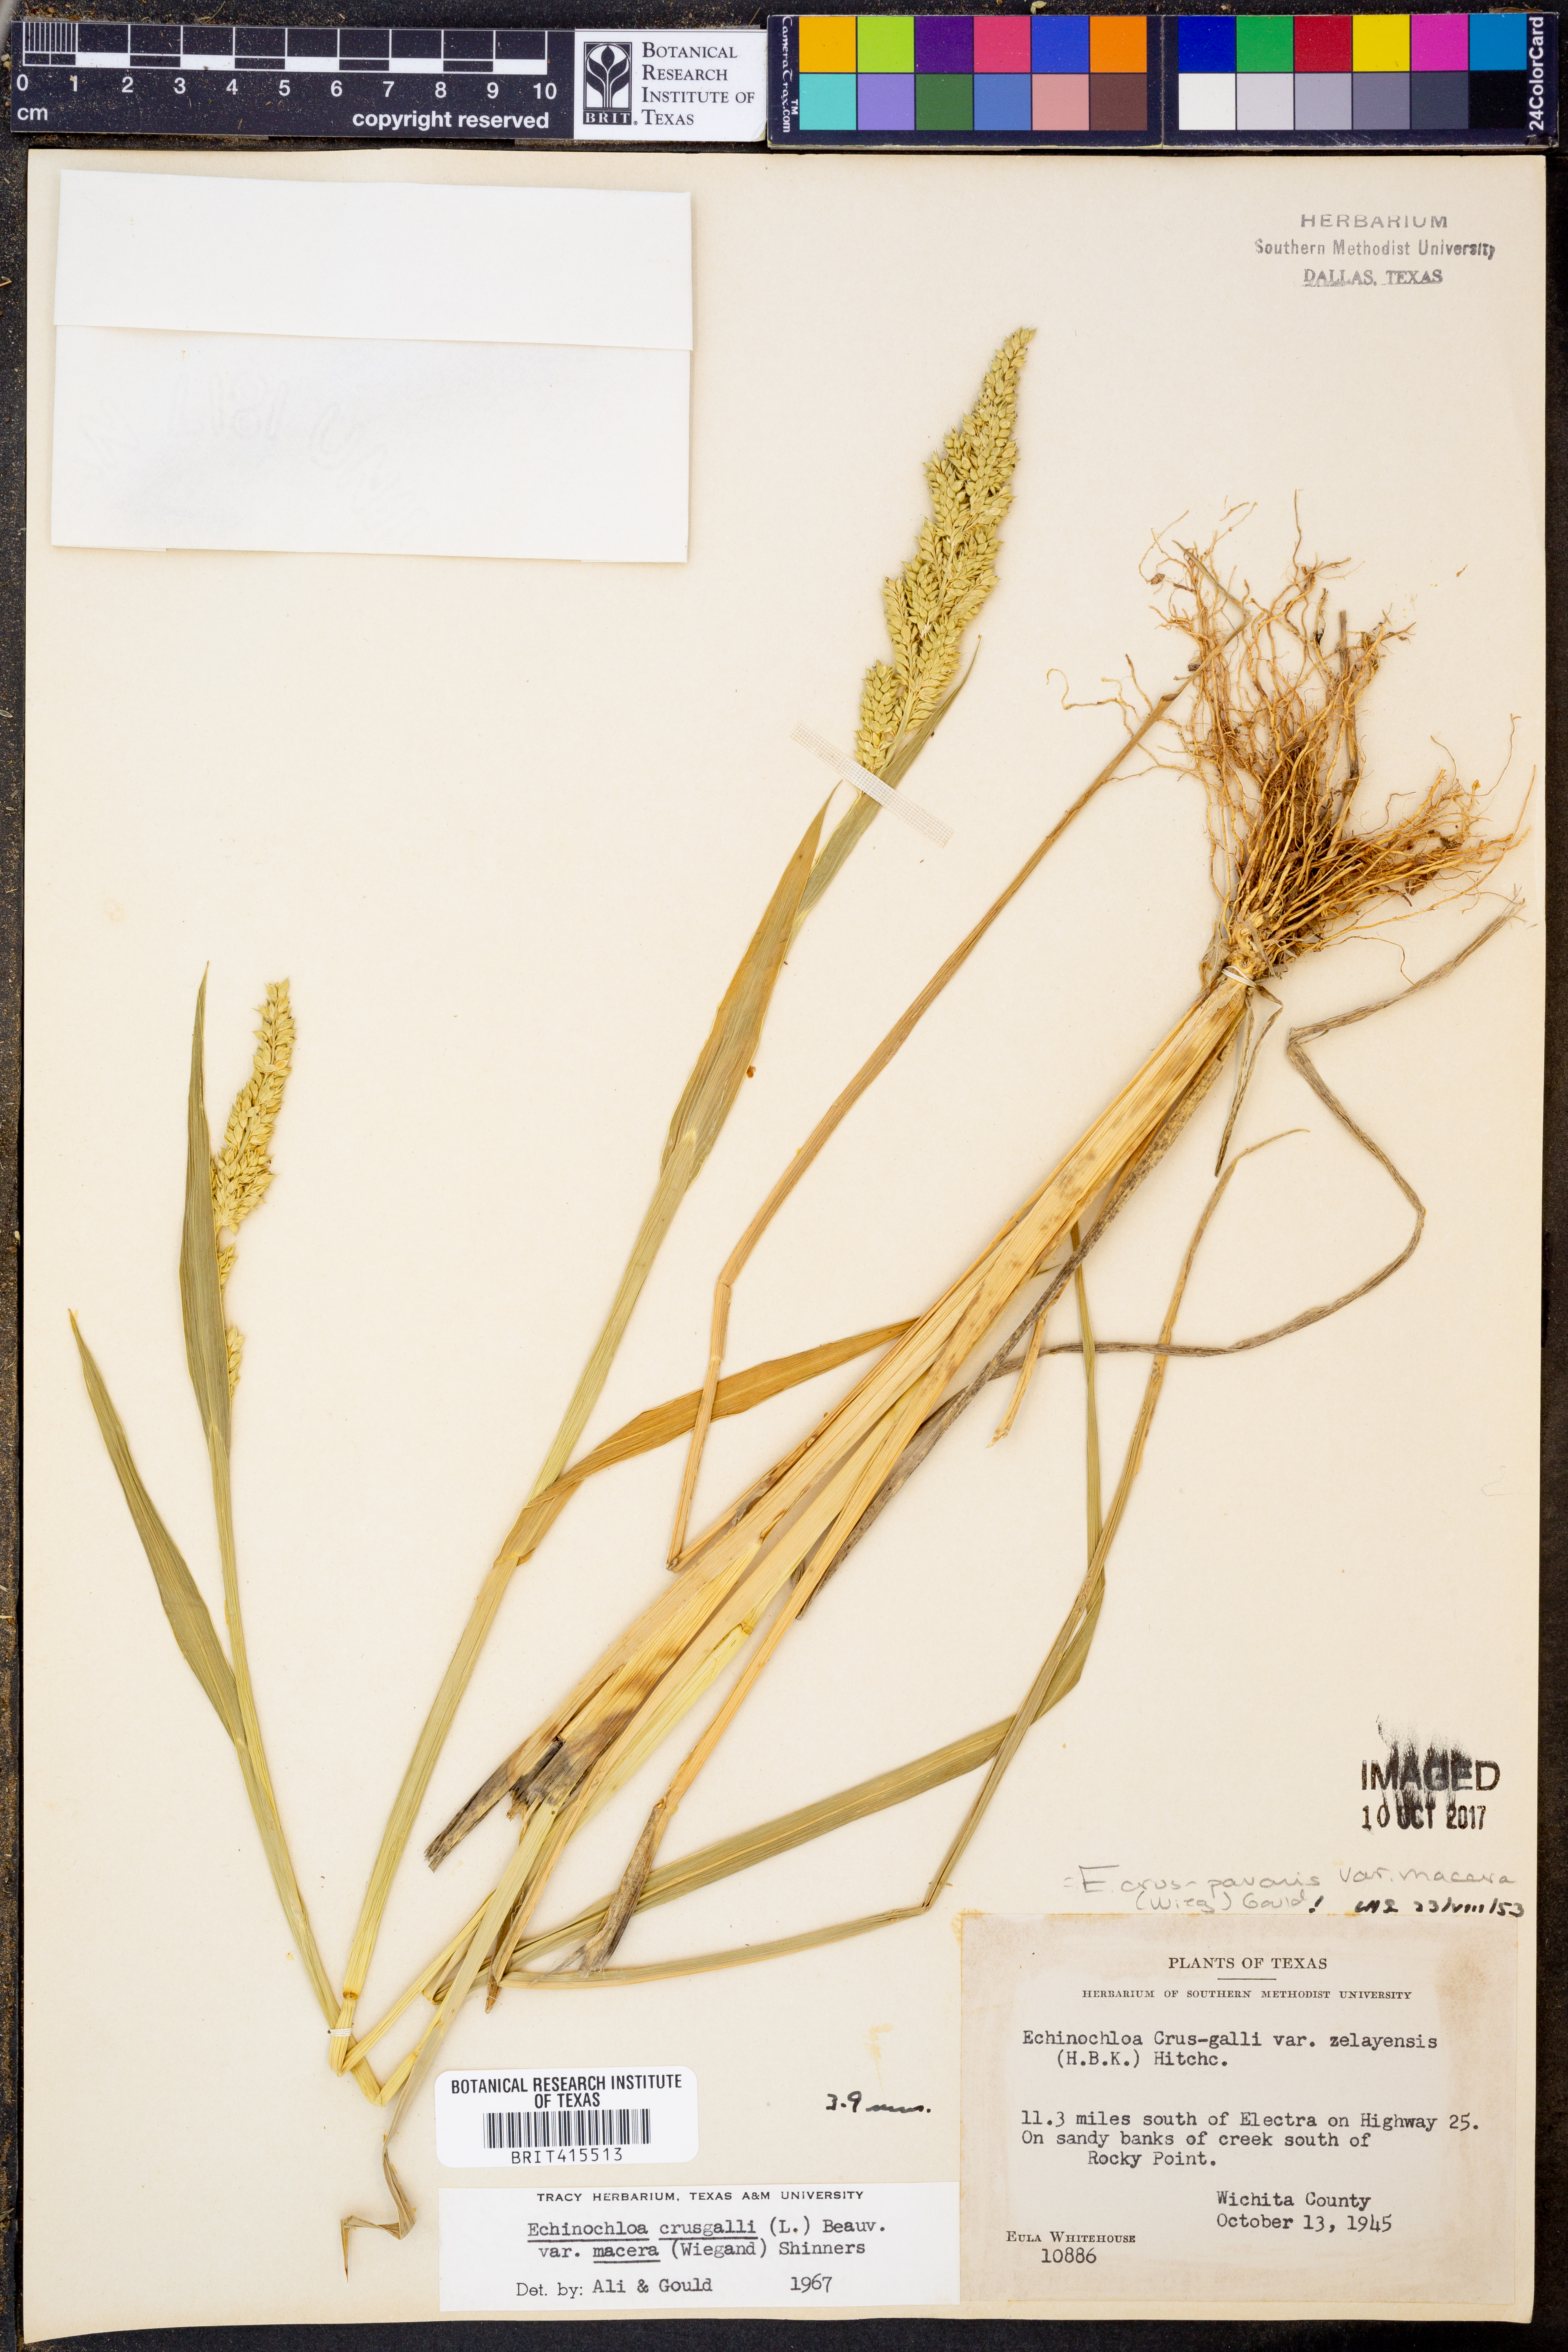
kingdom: Plantae
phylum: Tracheophyta
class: Liliopsida
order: Poales
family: Poaceae
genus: Echinochloa
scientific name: Echinochloa crus-pavonis
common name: Gulf cockspur grass
